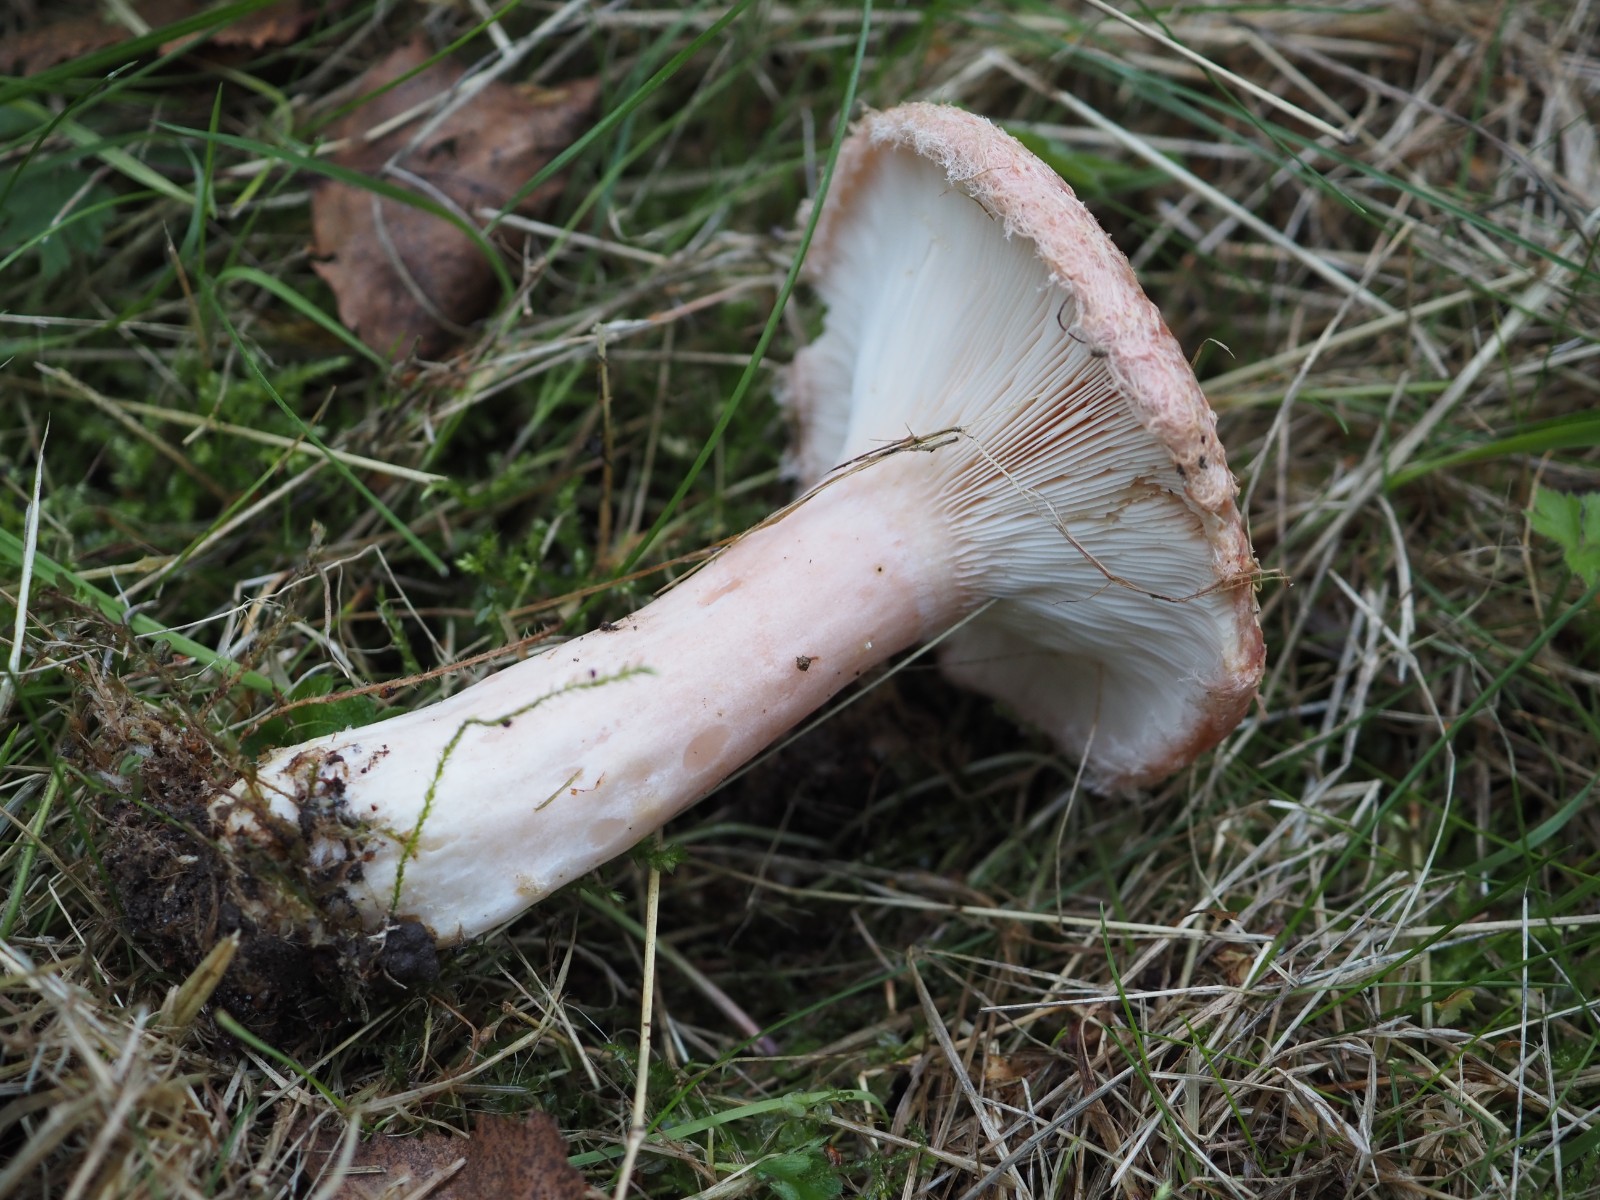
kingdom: Fungi
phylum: Basidiomycota
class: Agaricomycetes
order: Russulales
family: Russulaceae
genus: Lactarius
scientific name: Lactarius torminosus
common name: skægget mælkehat
